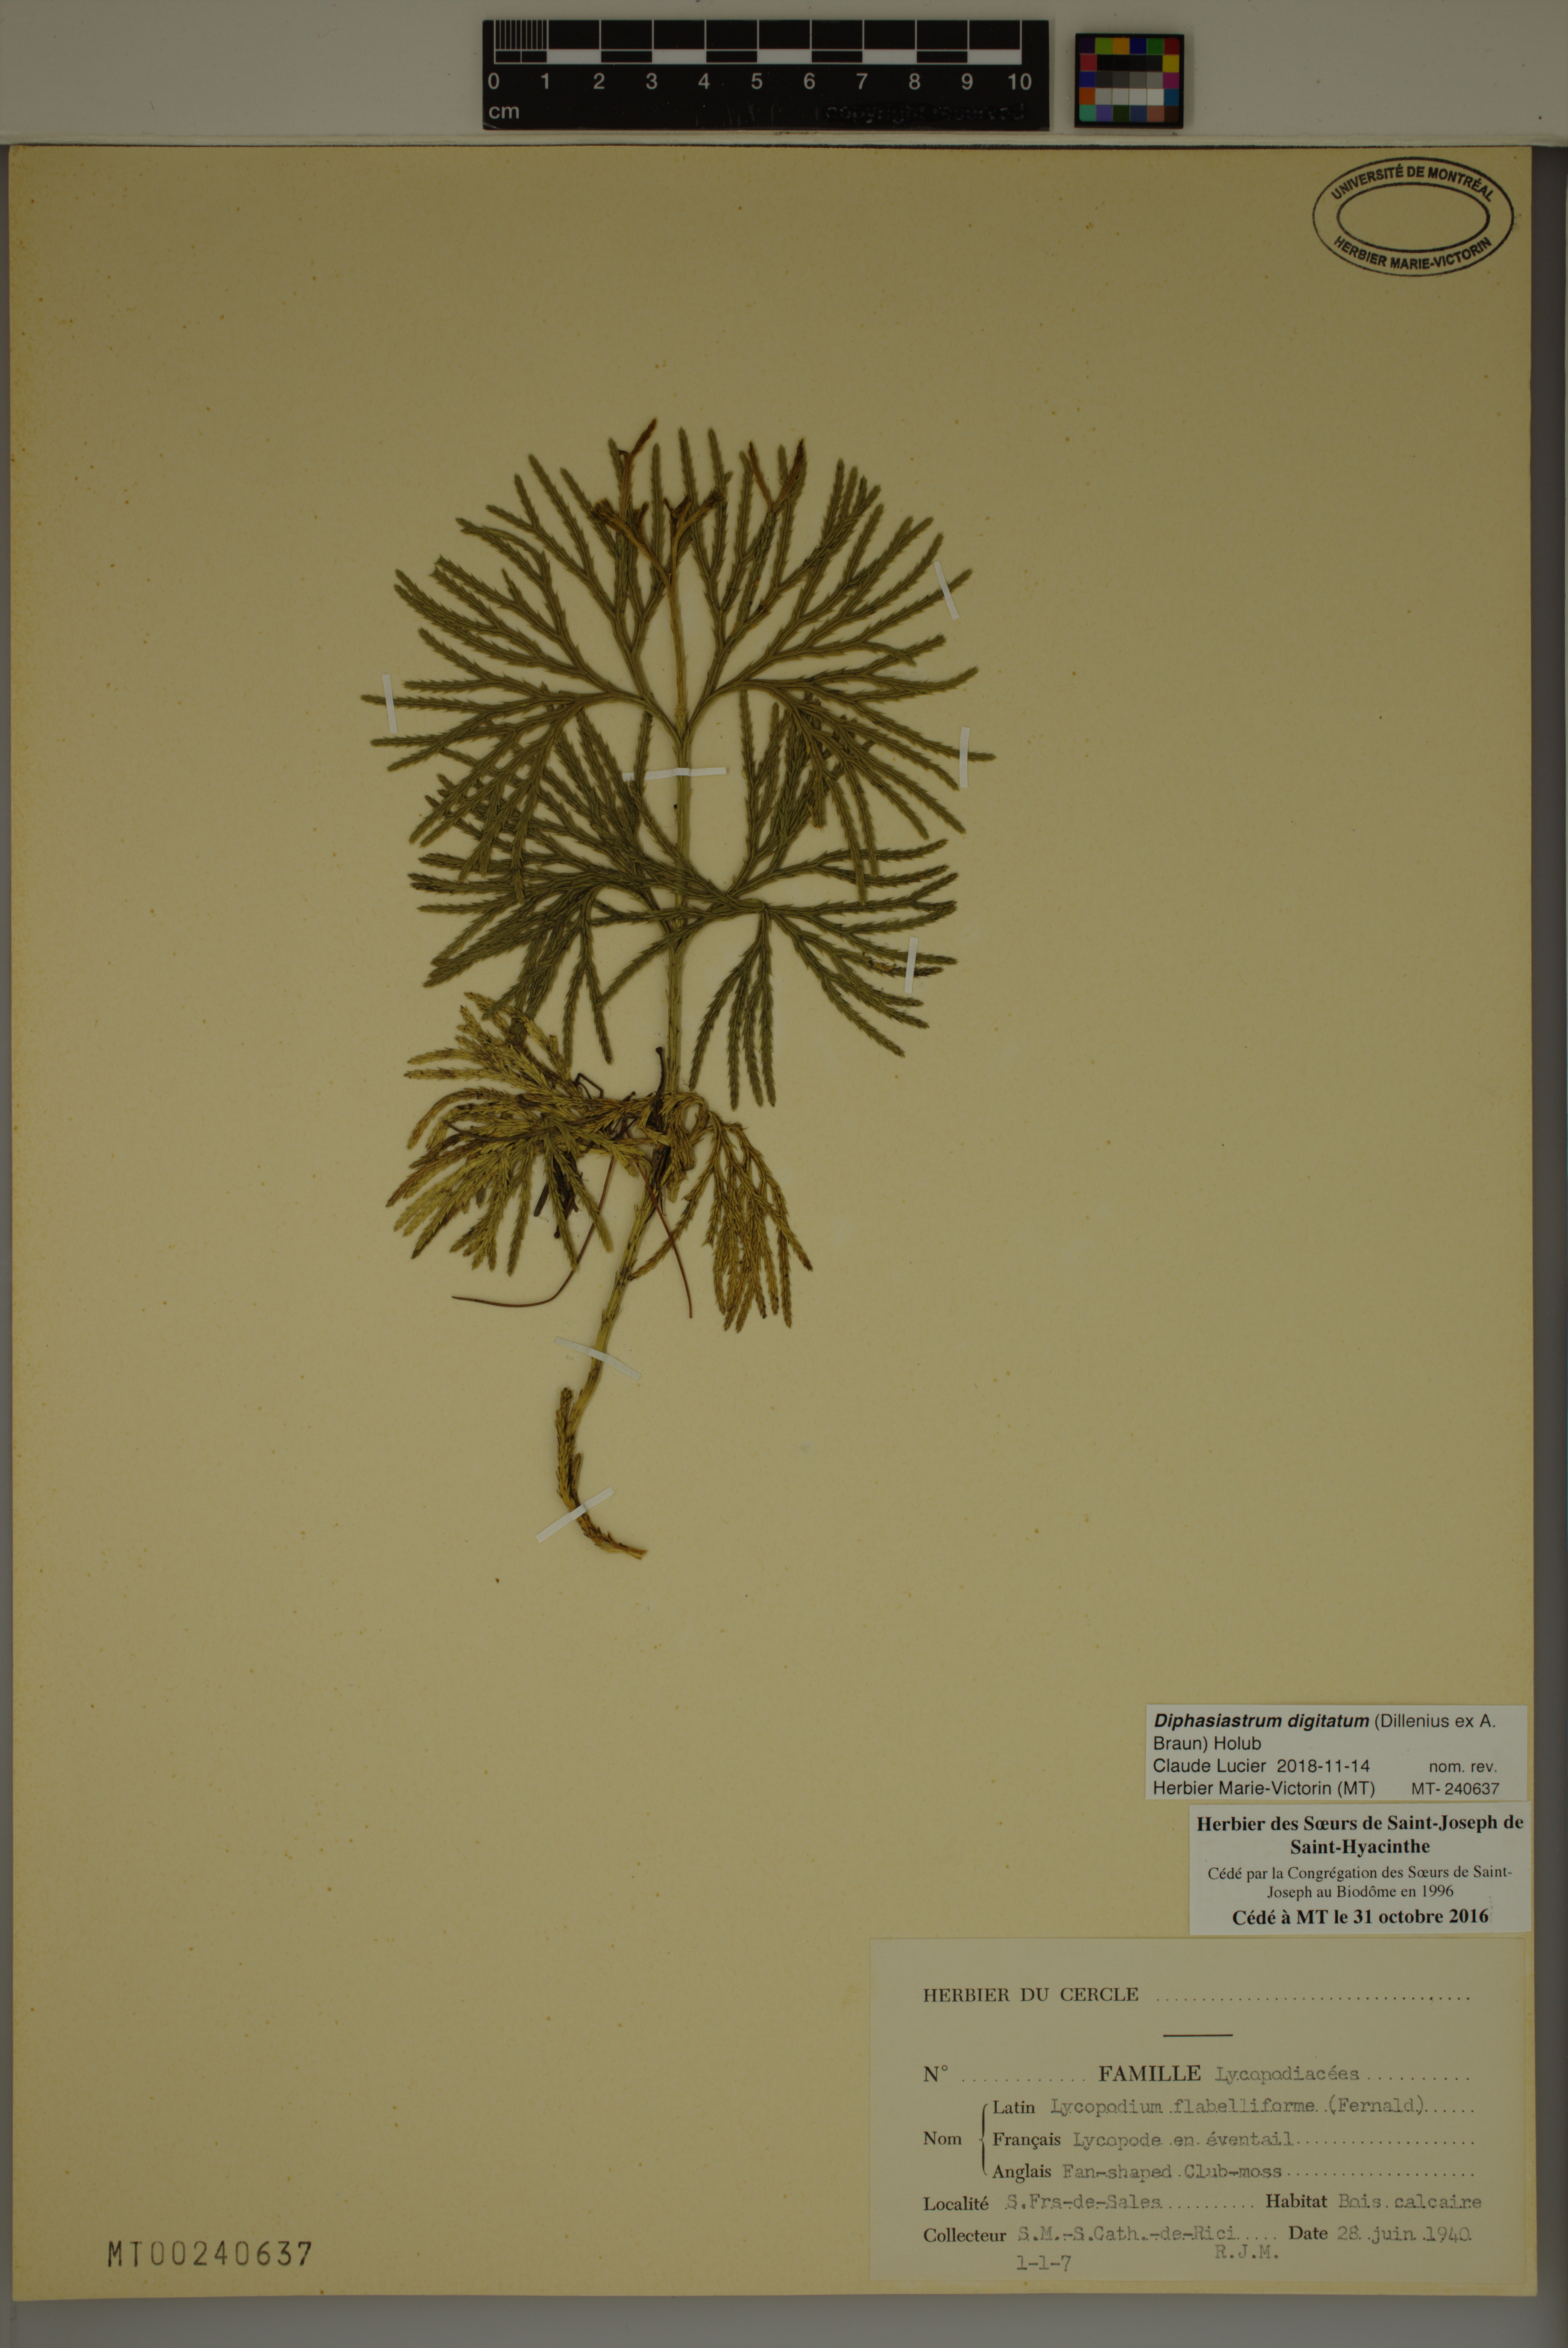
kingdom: Plantae
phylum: Tracheophyta
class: Lycopodiopsida
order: Lycopodiales
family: Lycopodiaceae
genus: Diphasiastrum
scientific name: Diphasiastrum digitatum
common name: Southern running-pine
